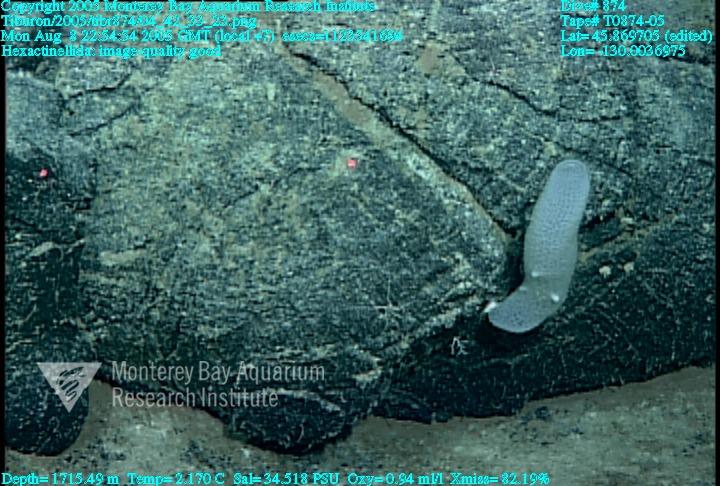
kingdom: Animalia
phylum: Porifera
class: Hexactinellida
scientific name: Hexactinellida
